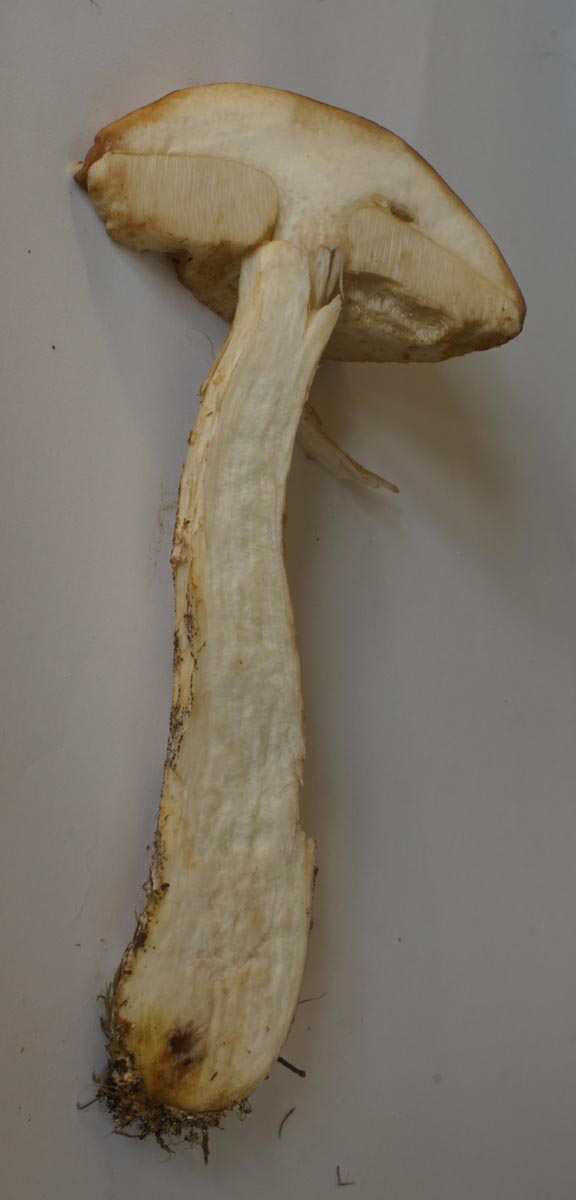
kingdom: Fungi
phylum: Basidiomycota
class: Agaricomycetes
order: Boletales
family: Boletaceae
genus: Leccinum
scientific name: Leccinum scabrum
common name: brun skælrørhat
